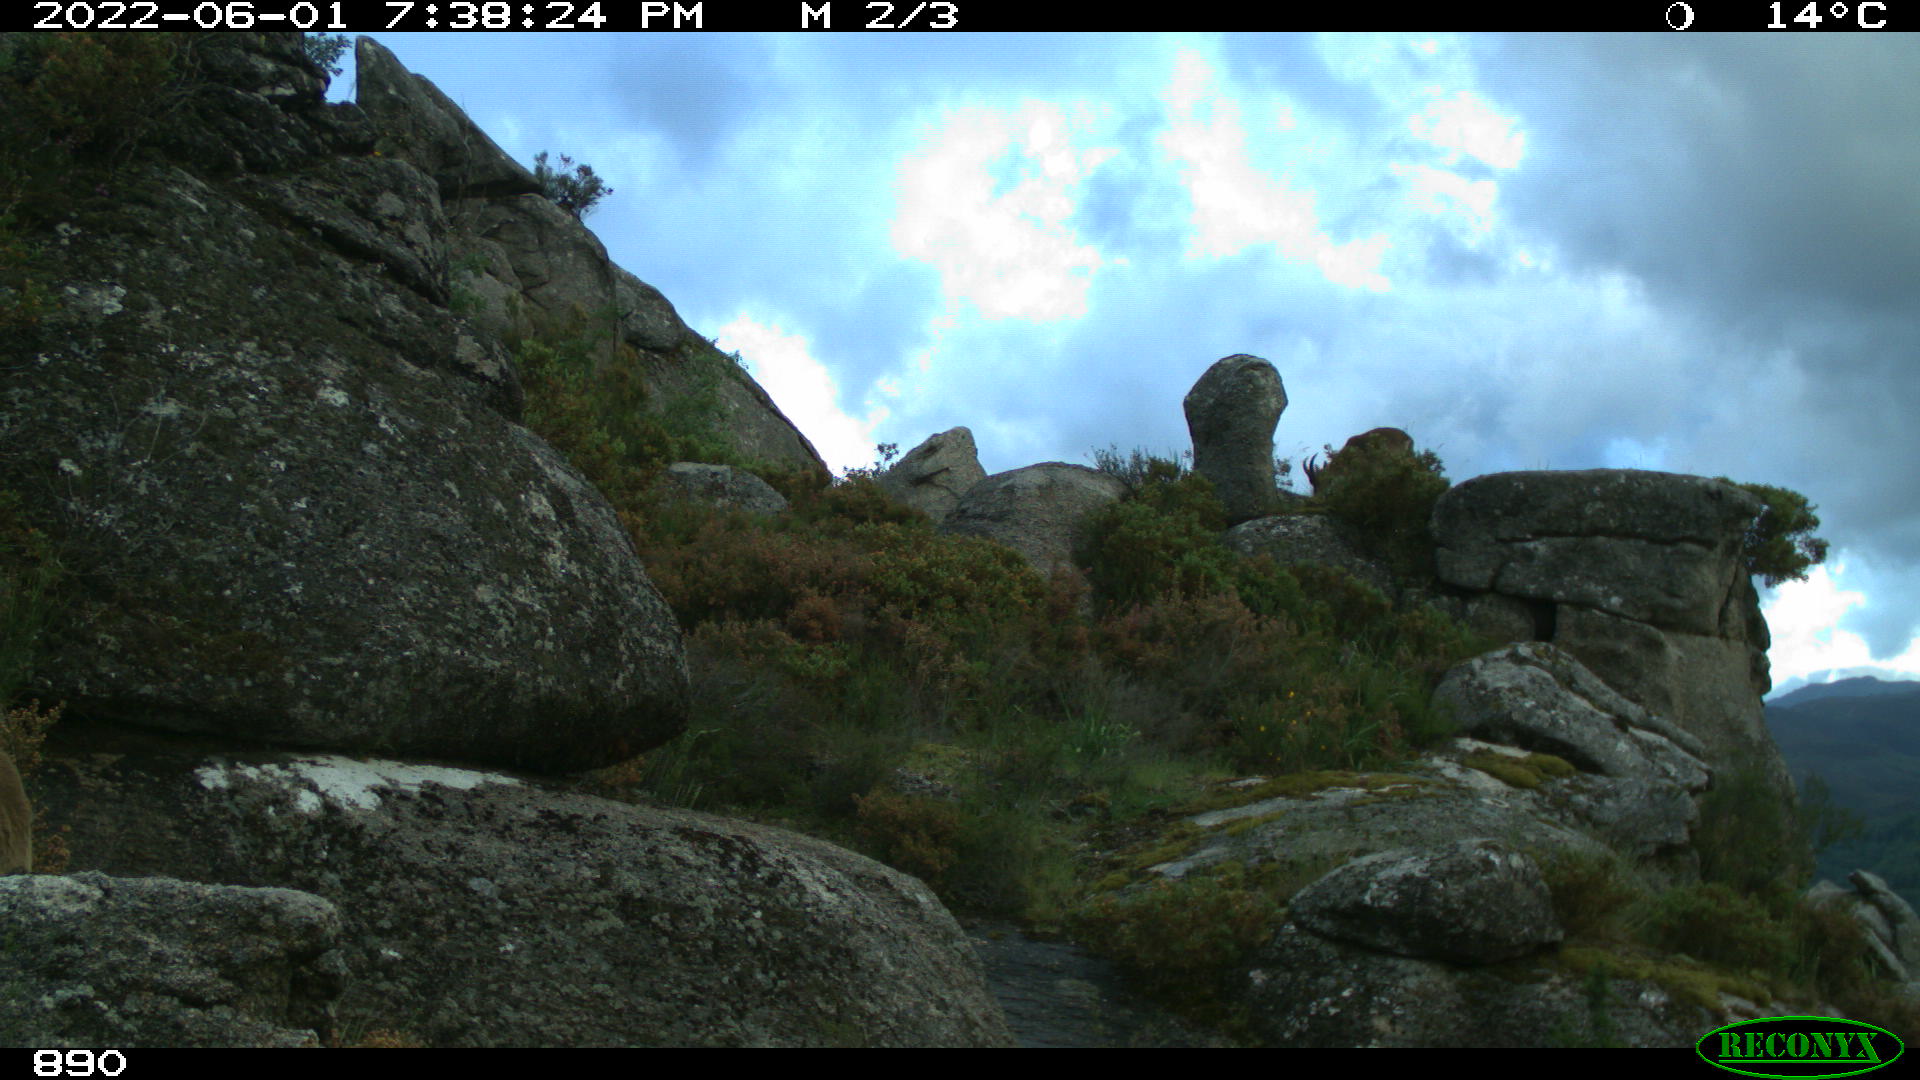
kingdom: Animalia
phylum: Chordata
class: Mammalia
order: Artiodactyla
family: Bovidae
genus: Capra
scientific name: Capra pyrenaica
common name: Spanish ibex
